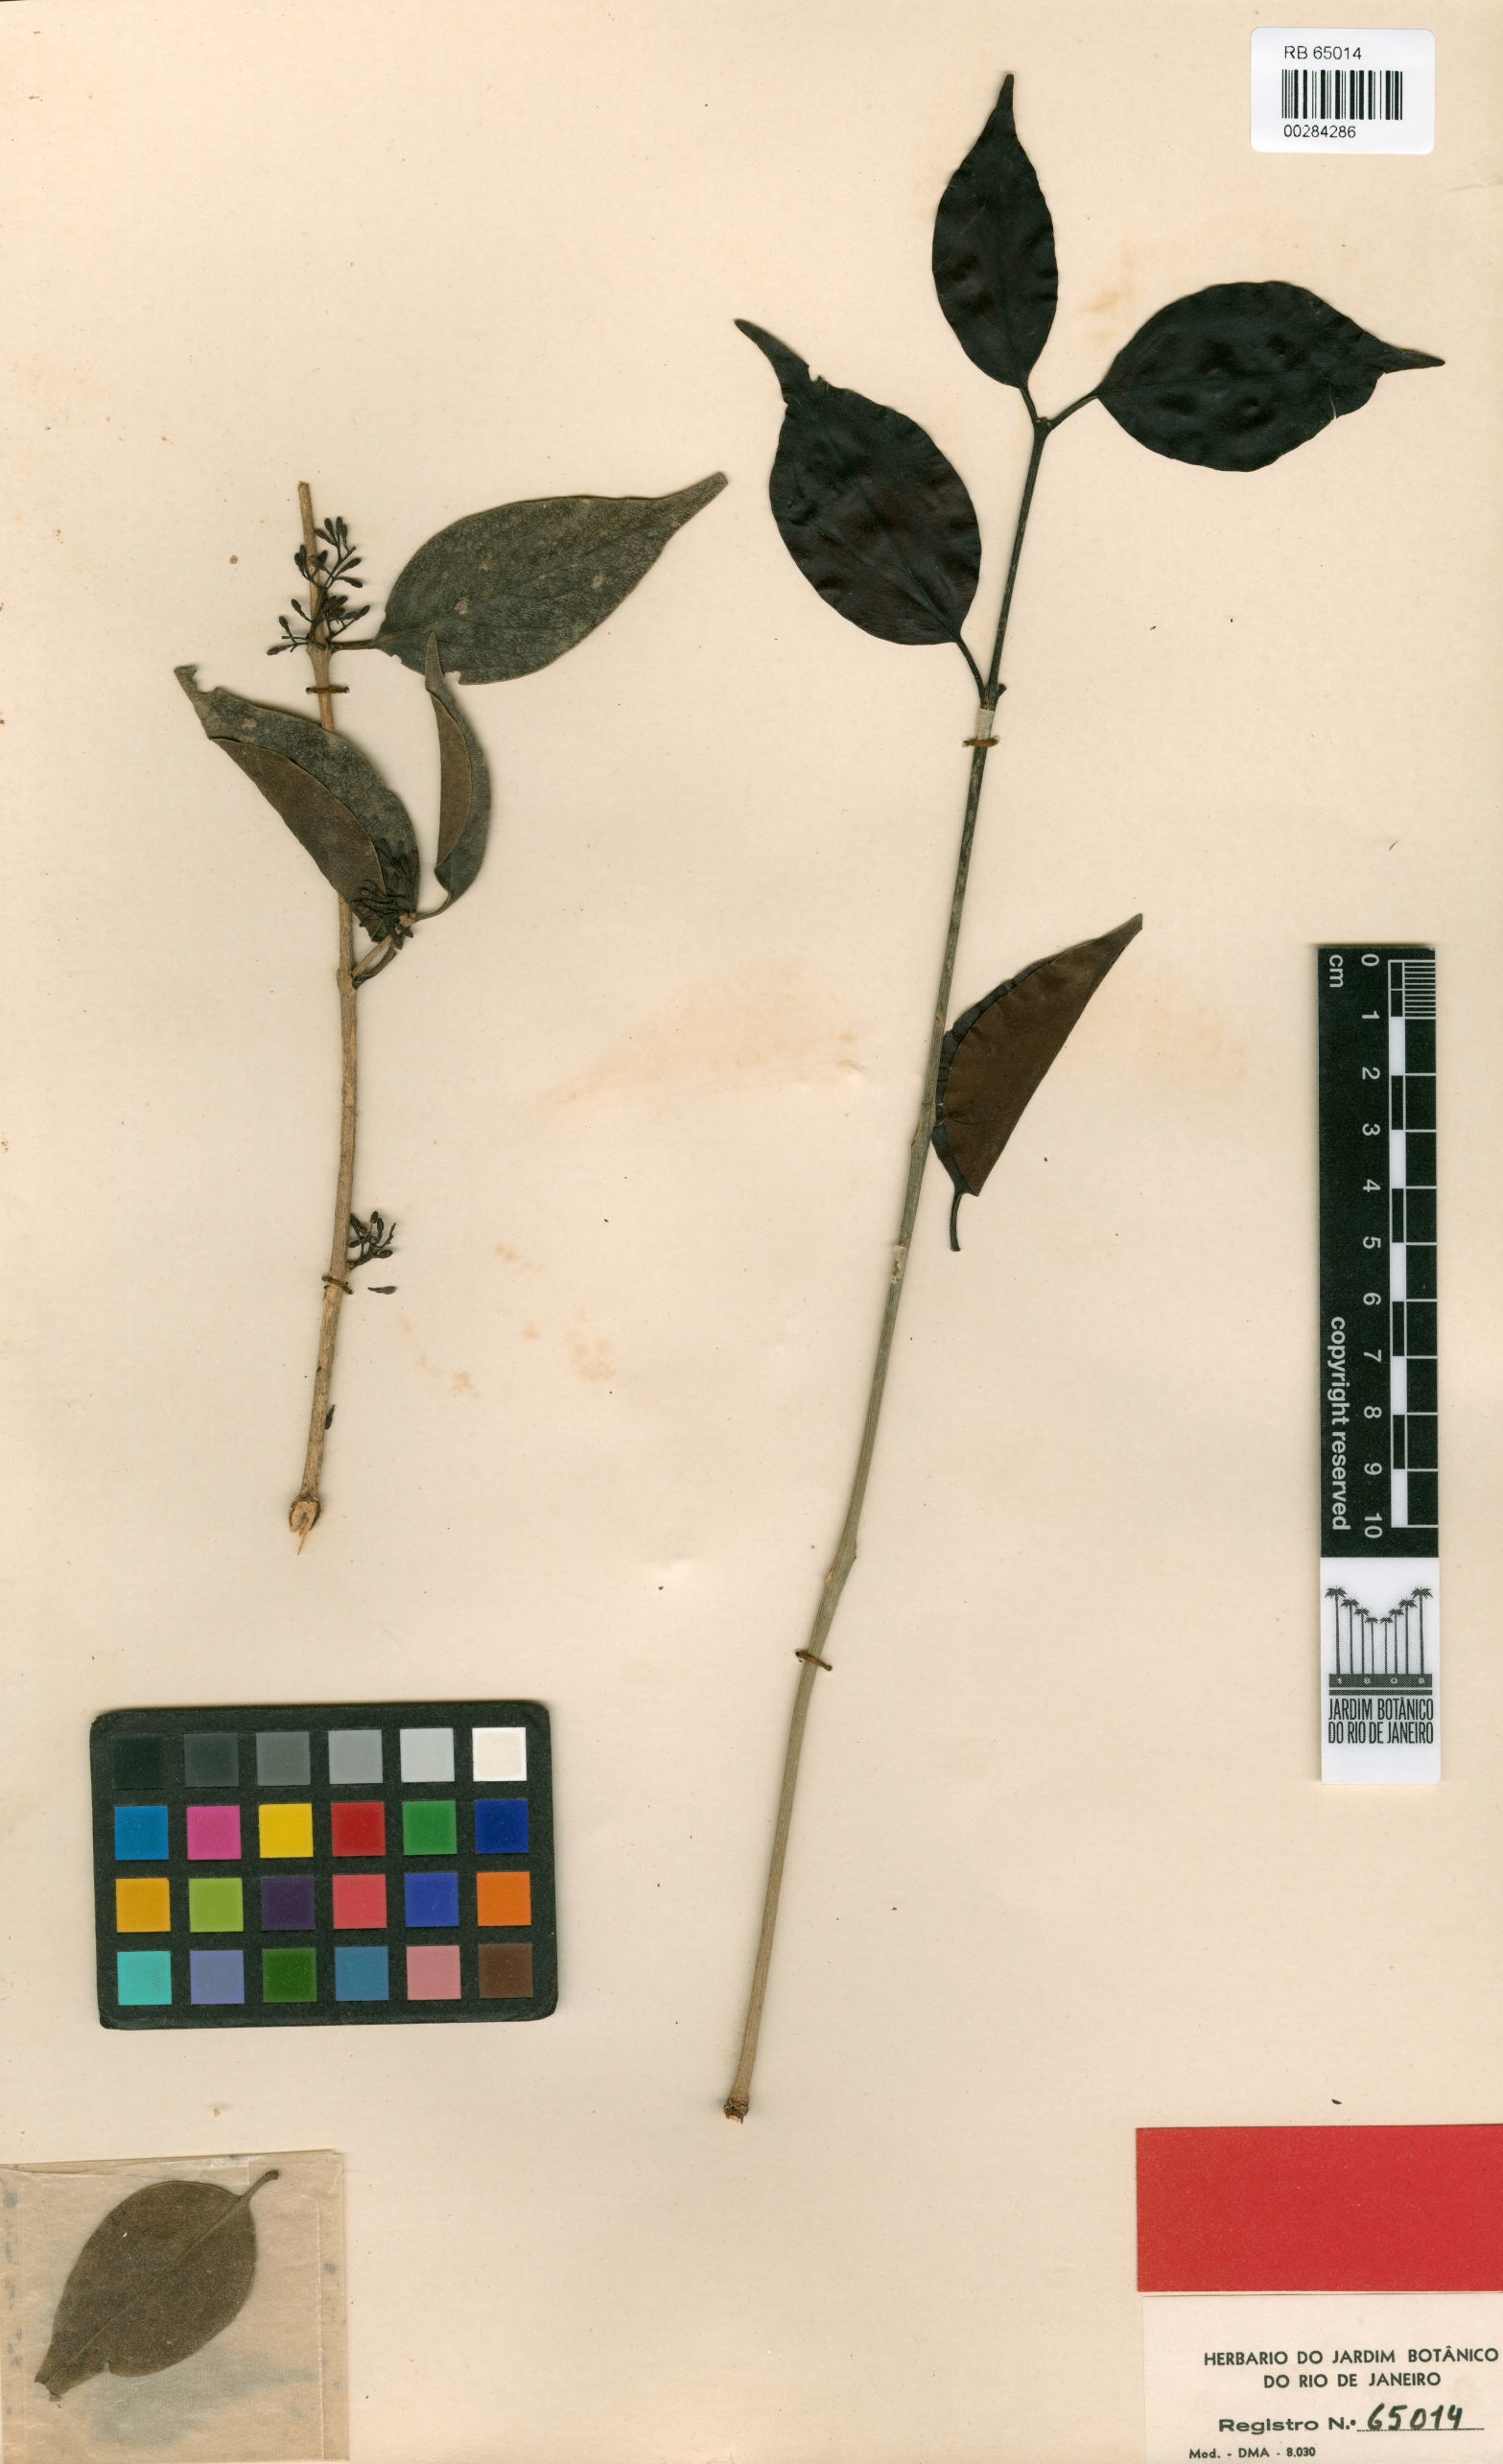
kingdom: Plantae
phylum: Tracheophyta
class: Magnoliopsida
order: Santalales
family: Loranthaceae
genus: Struthanthus
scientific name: Struthanthus volubilis
